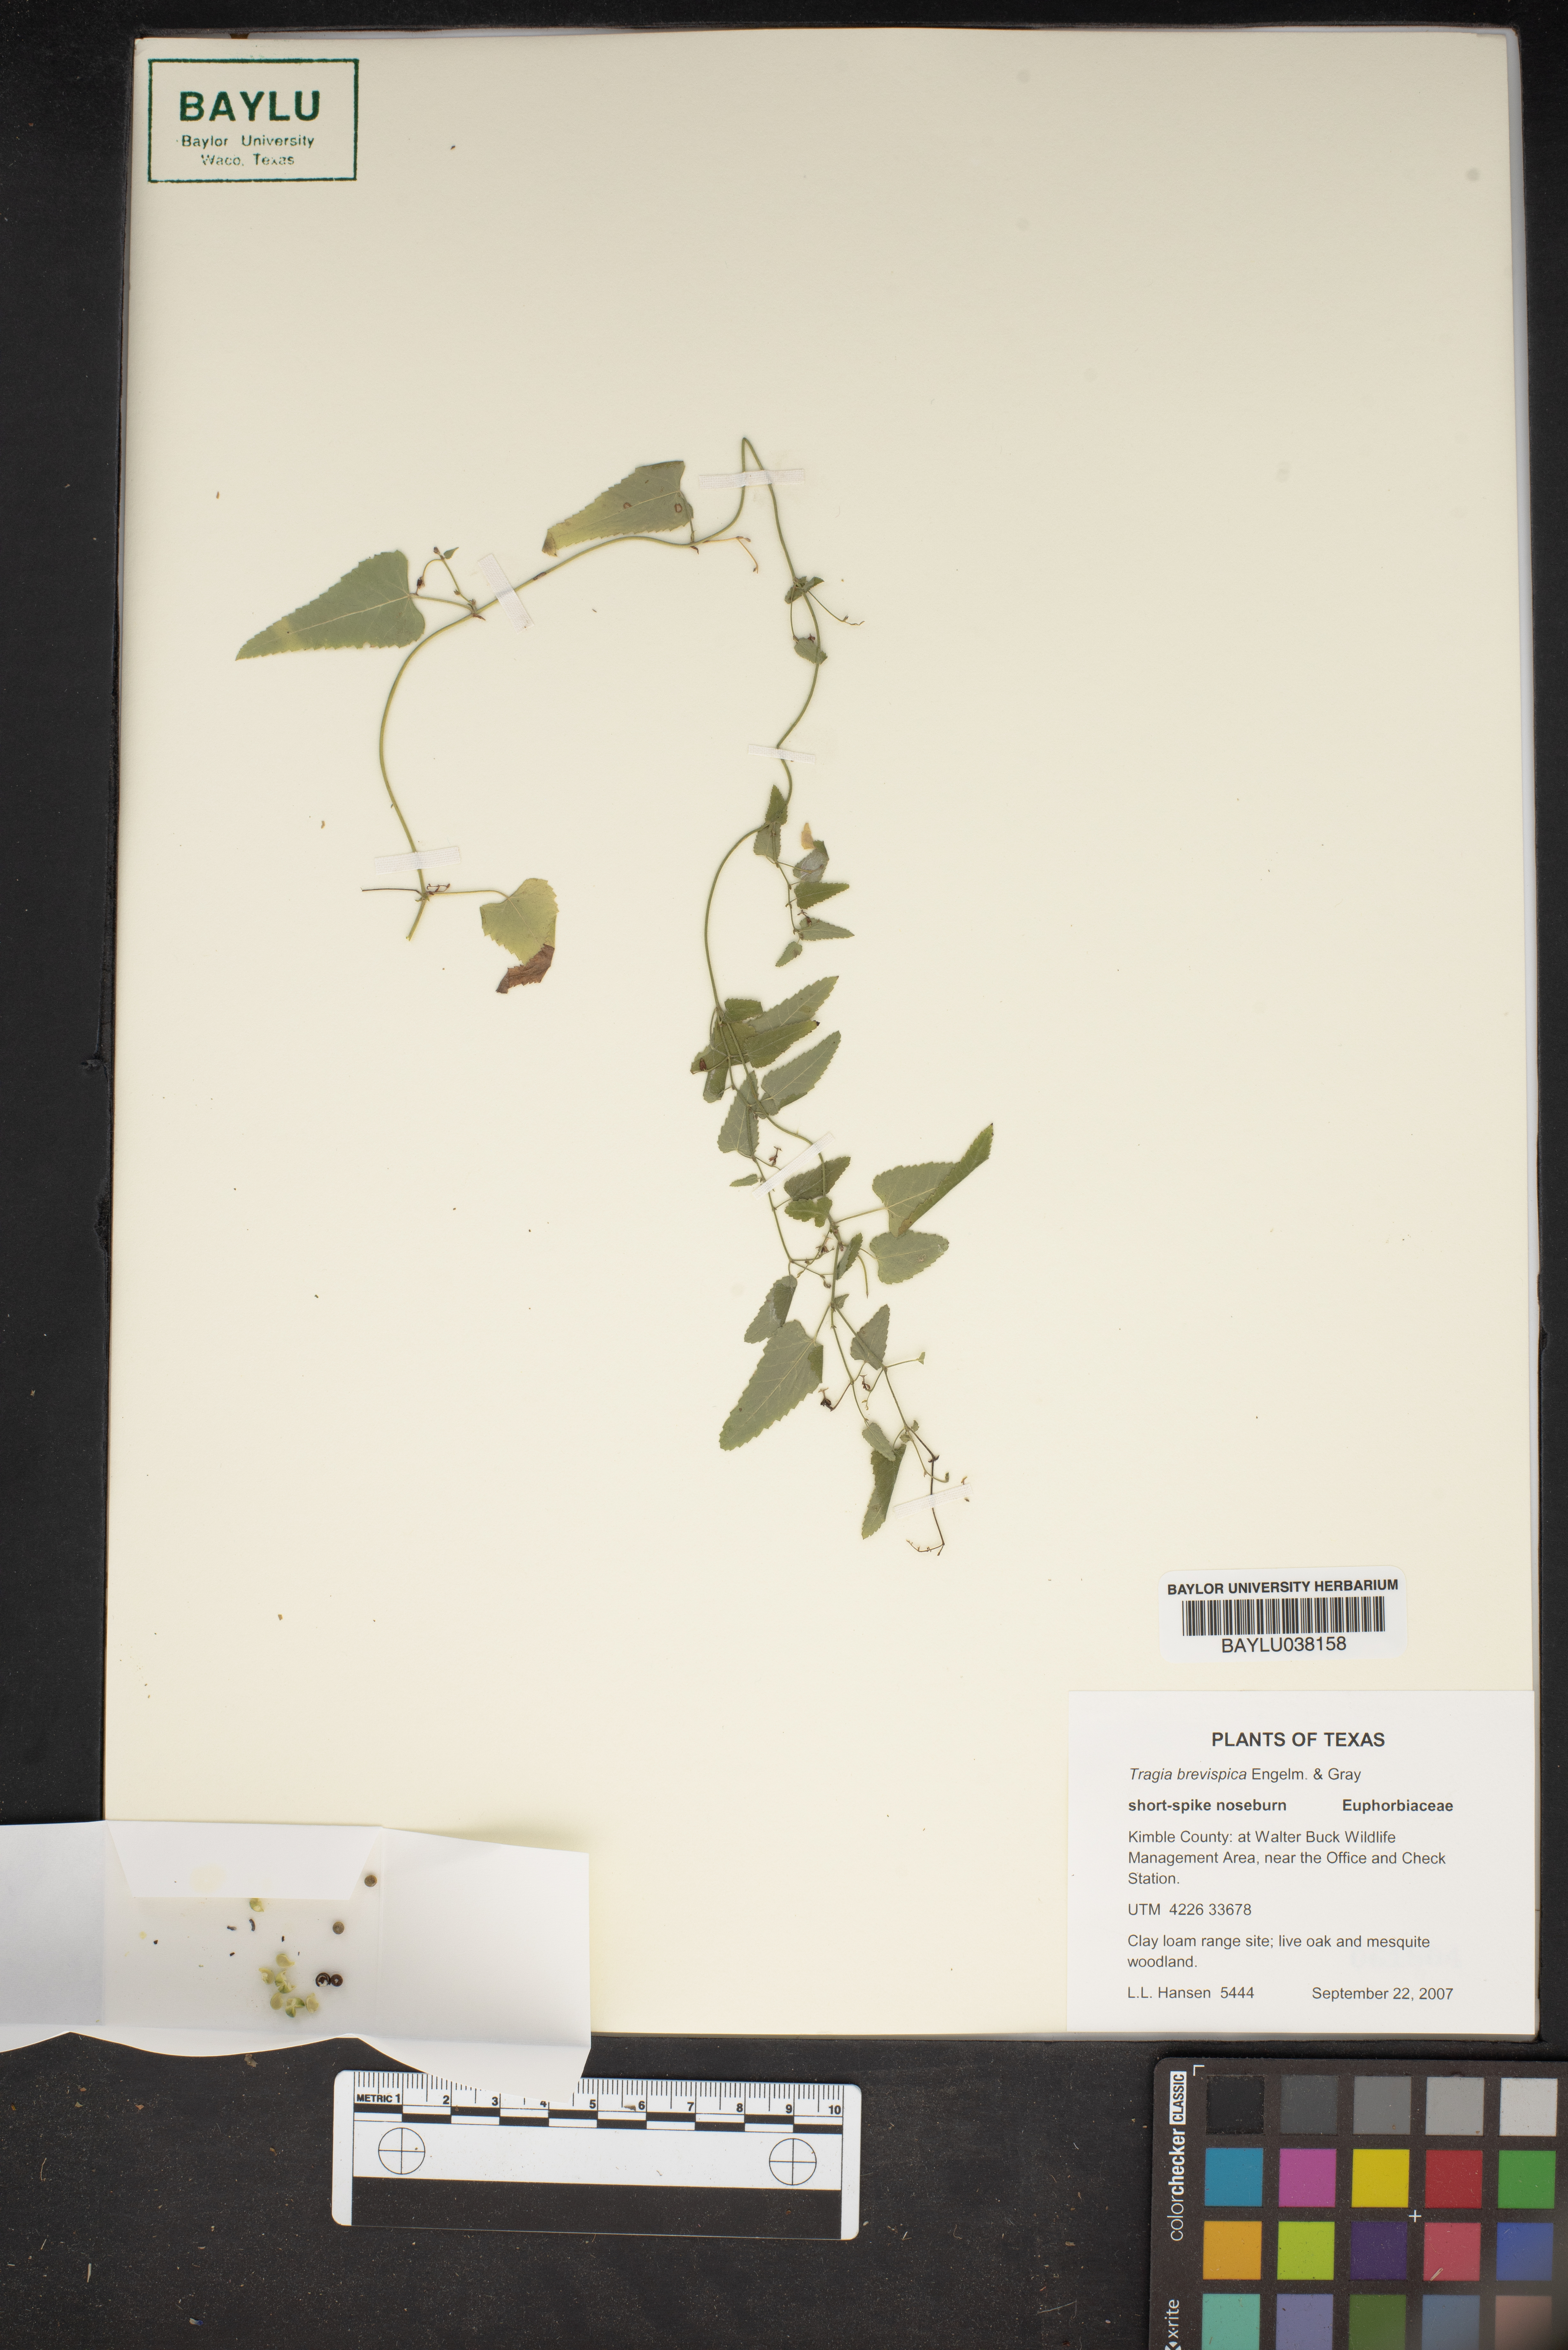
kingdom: Plantae
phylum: Tracheophyta
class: Magnoliopsida
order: Malpighiales
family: Euphorbiaceae
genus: Tragia
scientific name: Tragia brevispica
